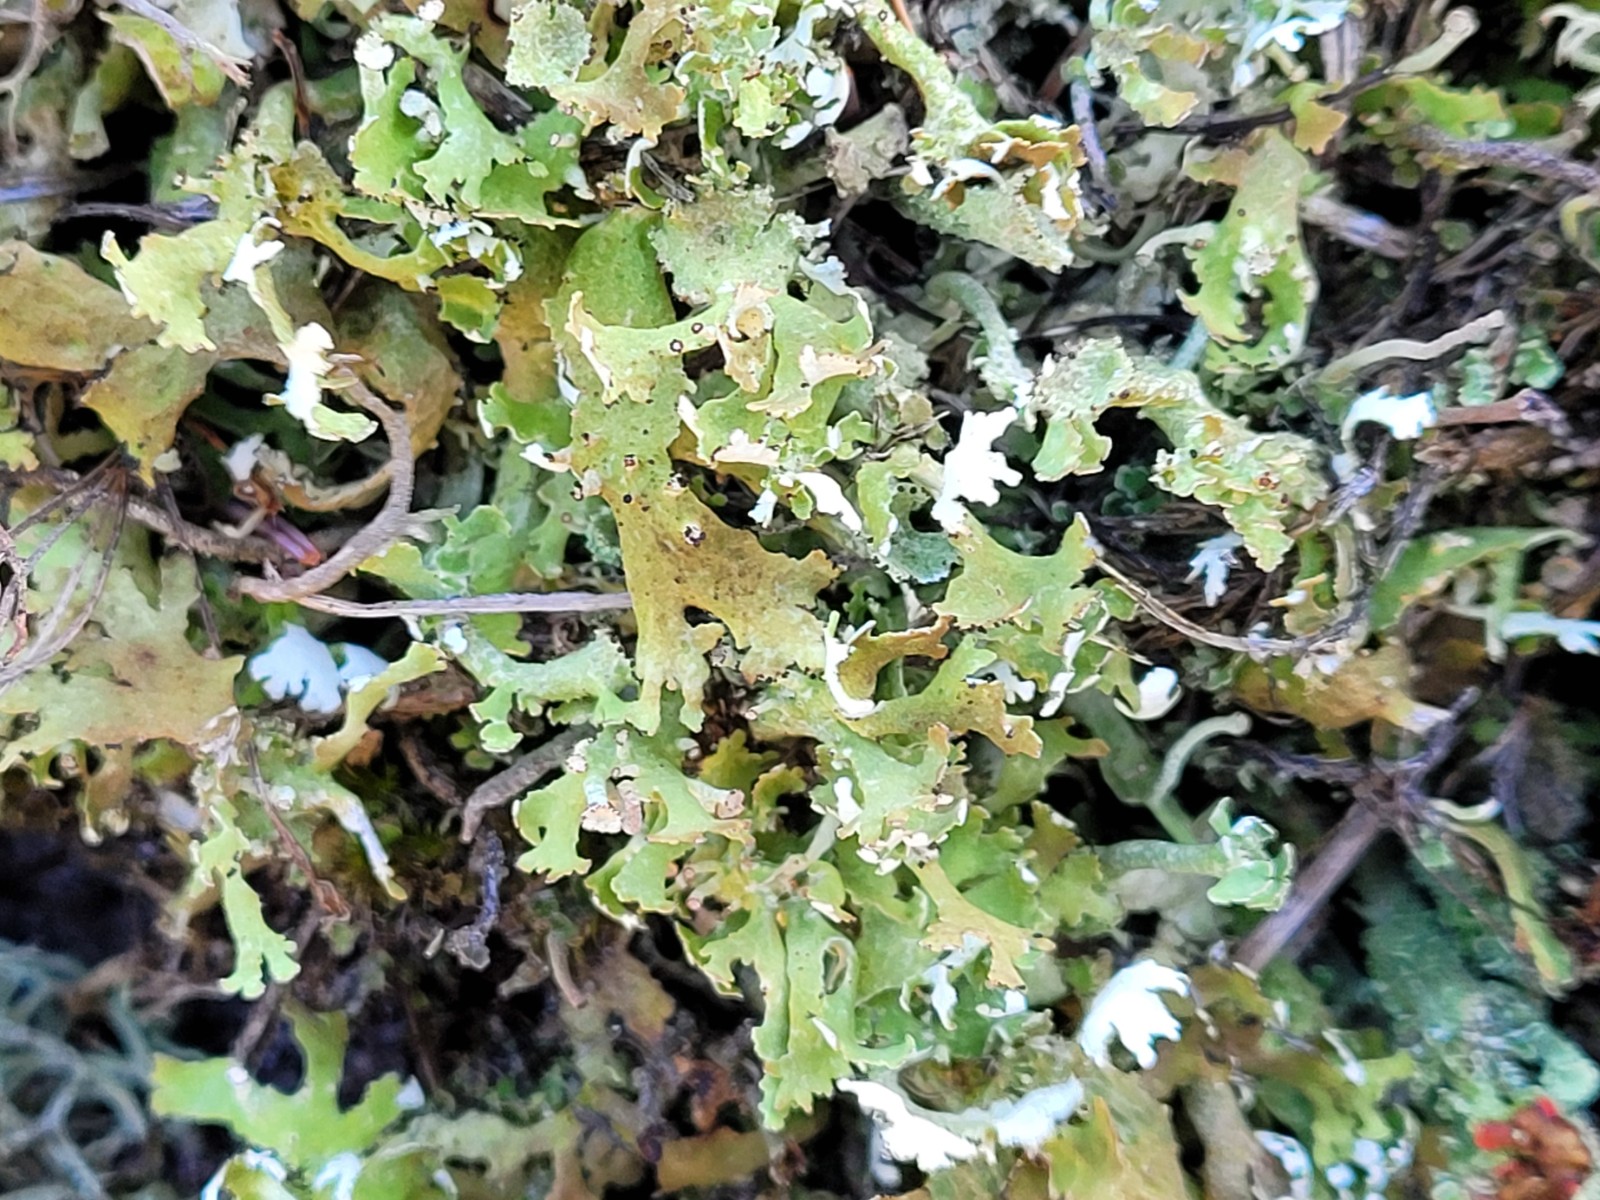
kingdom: Fungi
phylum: Ascomycota
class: Lecanoromycetes
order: Lecanorales
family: Cladoniaceae
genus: Cladonia
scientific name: Cladonia foliacea
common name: fliget bægerlav
